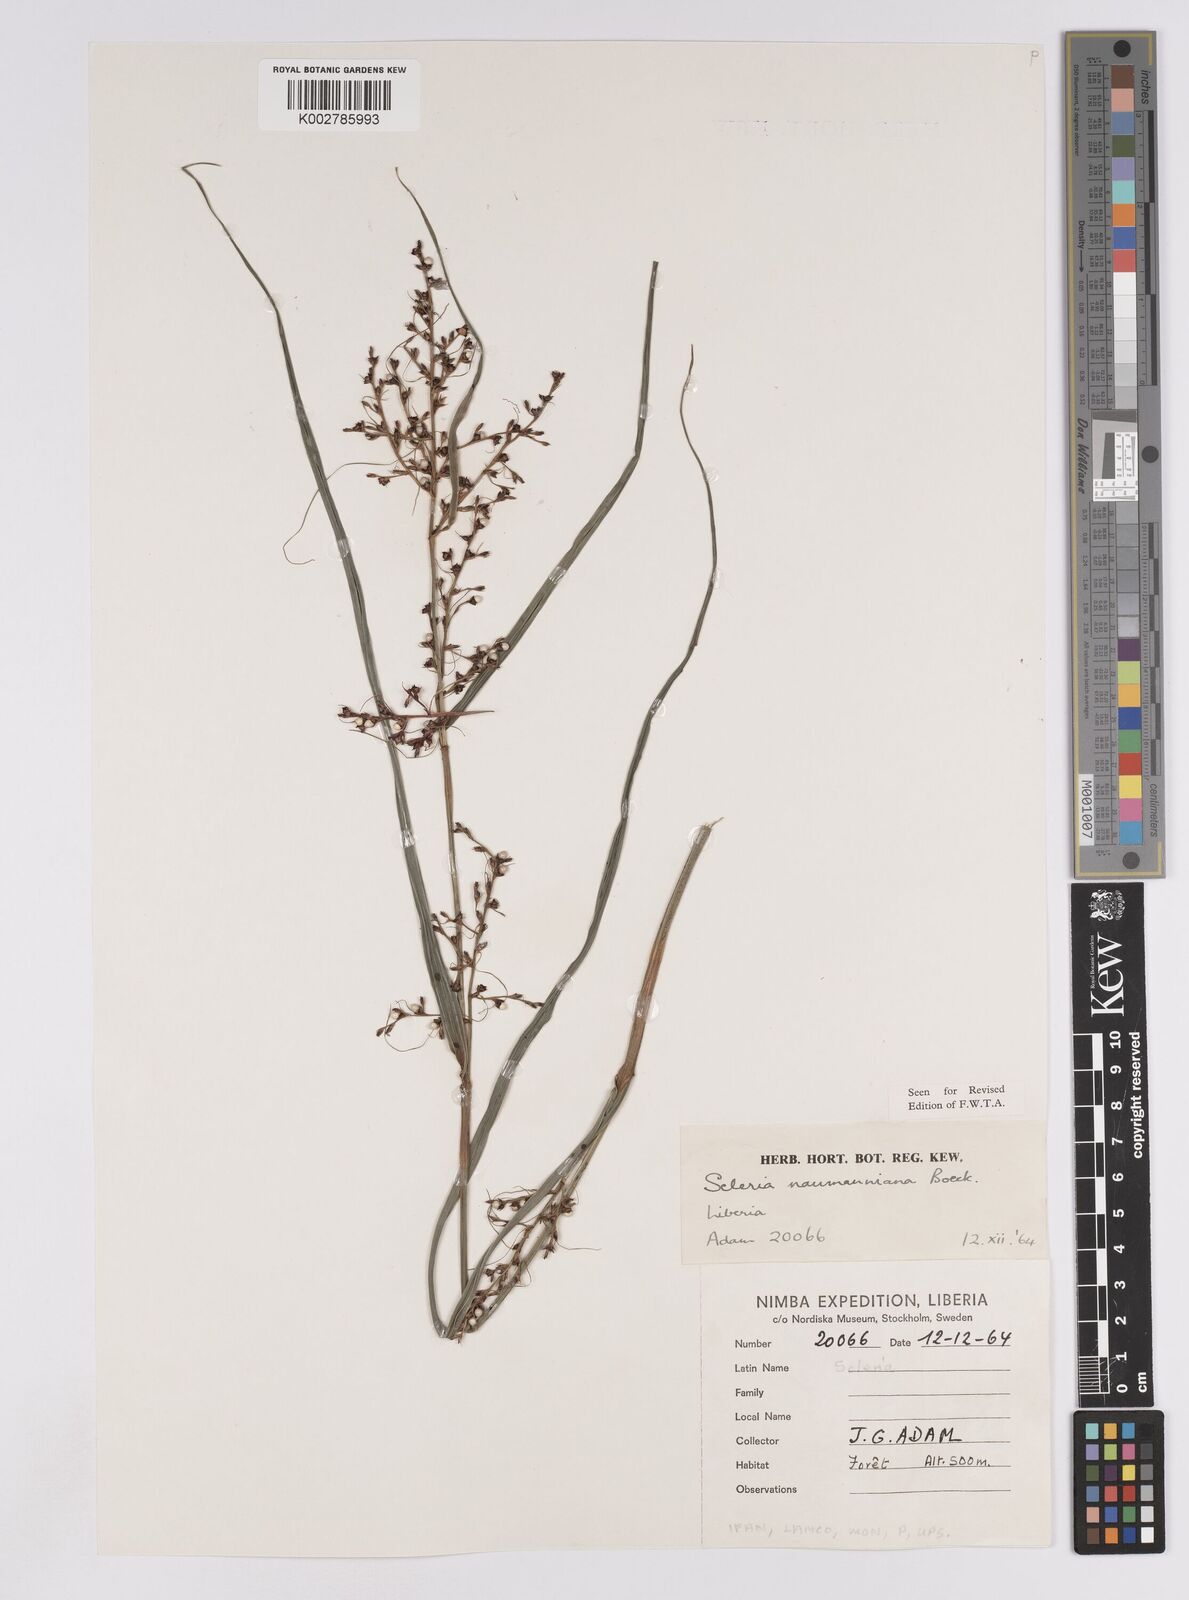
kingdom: Plantae
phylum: Tracheophyta
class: Liliopsida
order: Poales
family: Cyperaceae
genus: Scleria
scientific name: Scleria naumanniana
